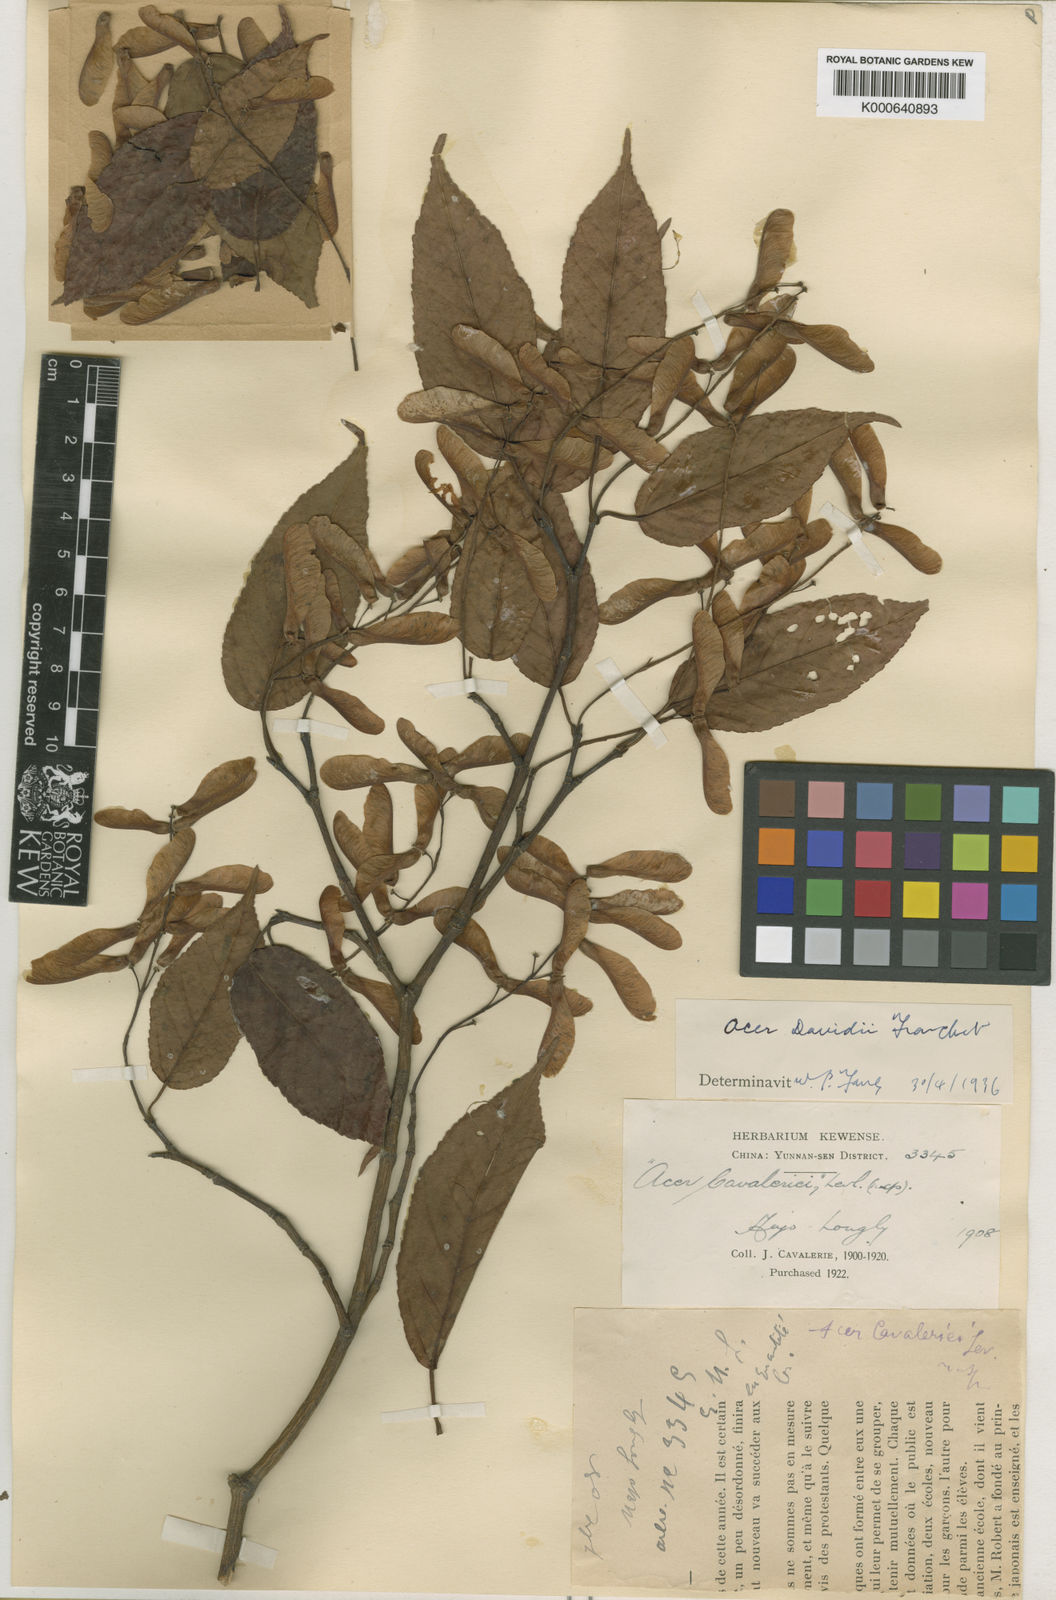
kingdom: Plantae
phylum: Tracheophyta
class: Magnoliopsida
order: Sapindales
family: Sapindaceae
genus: Acer
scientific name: Acer davidii
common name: Father david's maple
